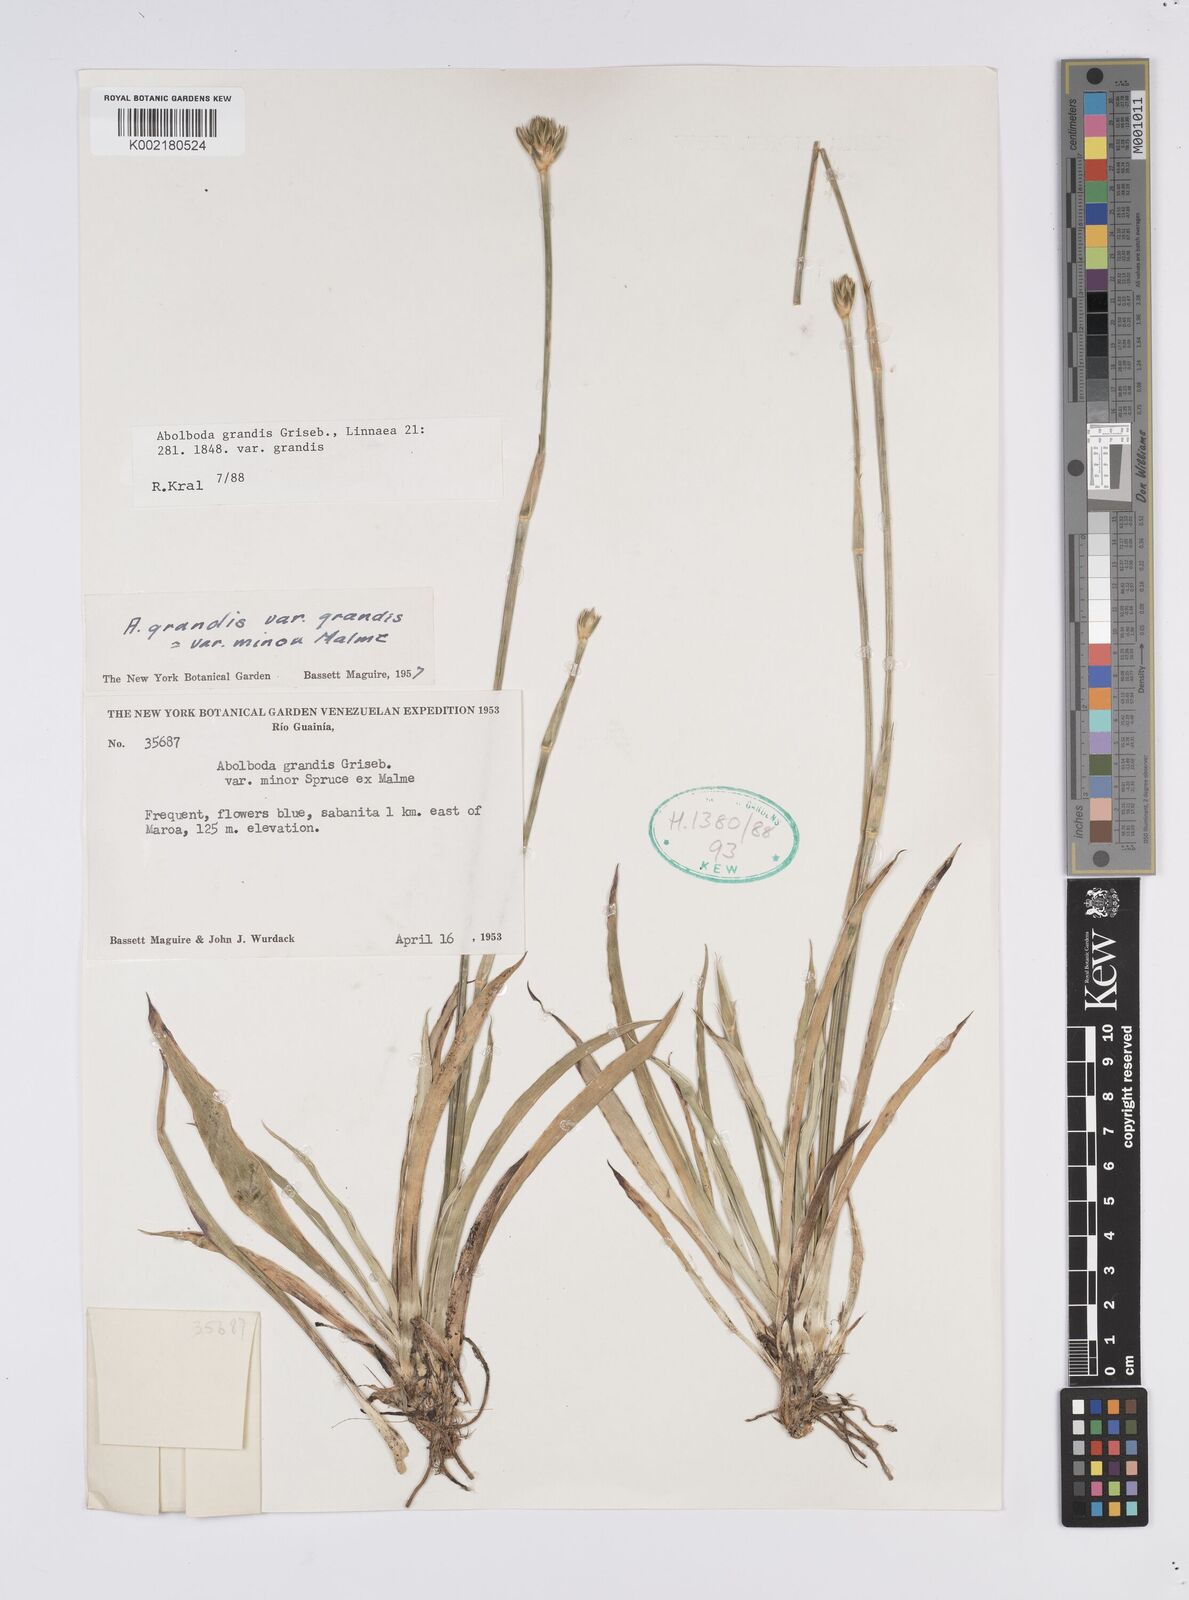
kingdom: Plantae
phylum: Tracheophyta
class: Liliopsida
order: Poales
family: Xyridaceae
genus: Abolboda
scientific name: Abolboda grandis
